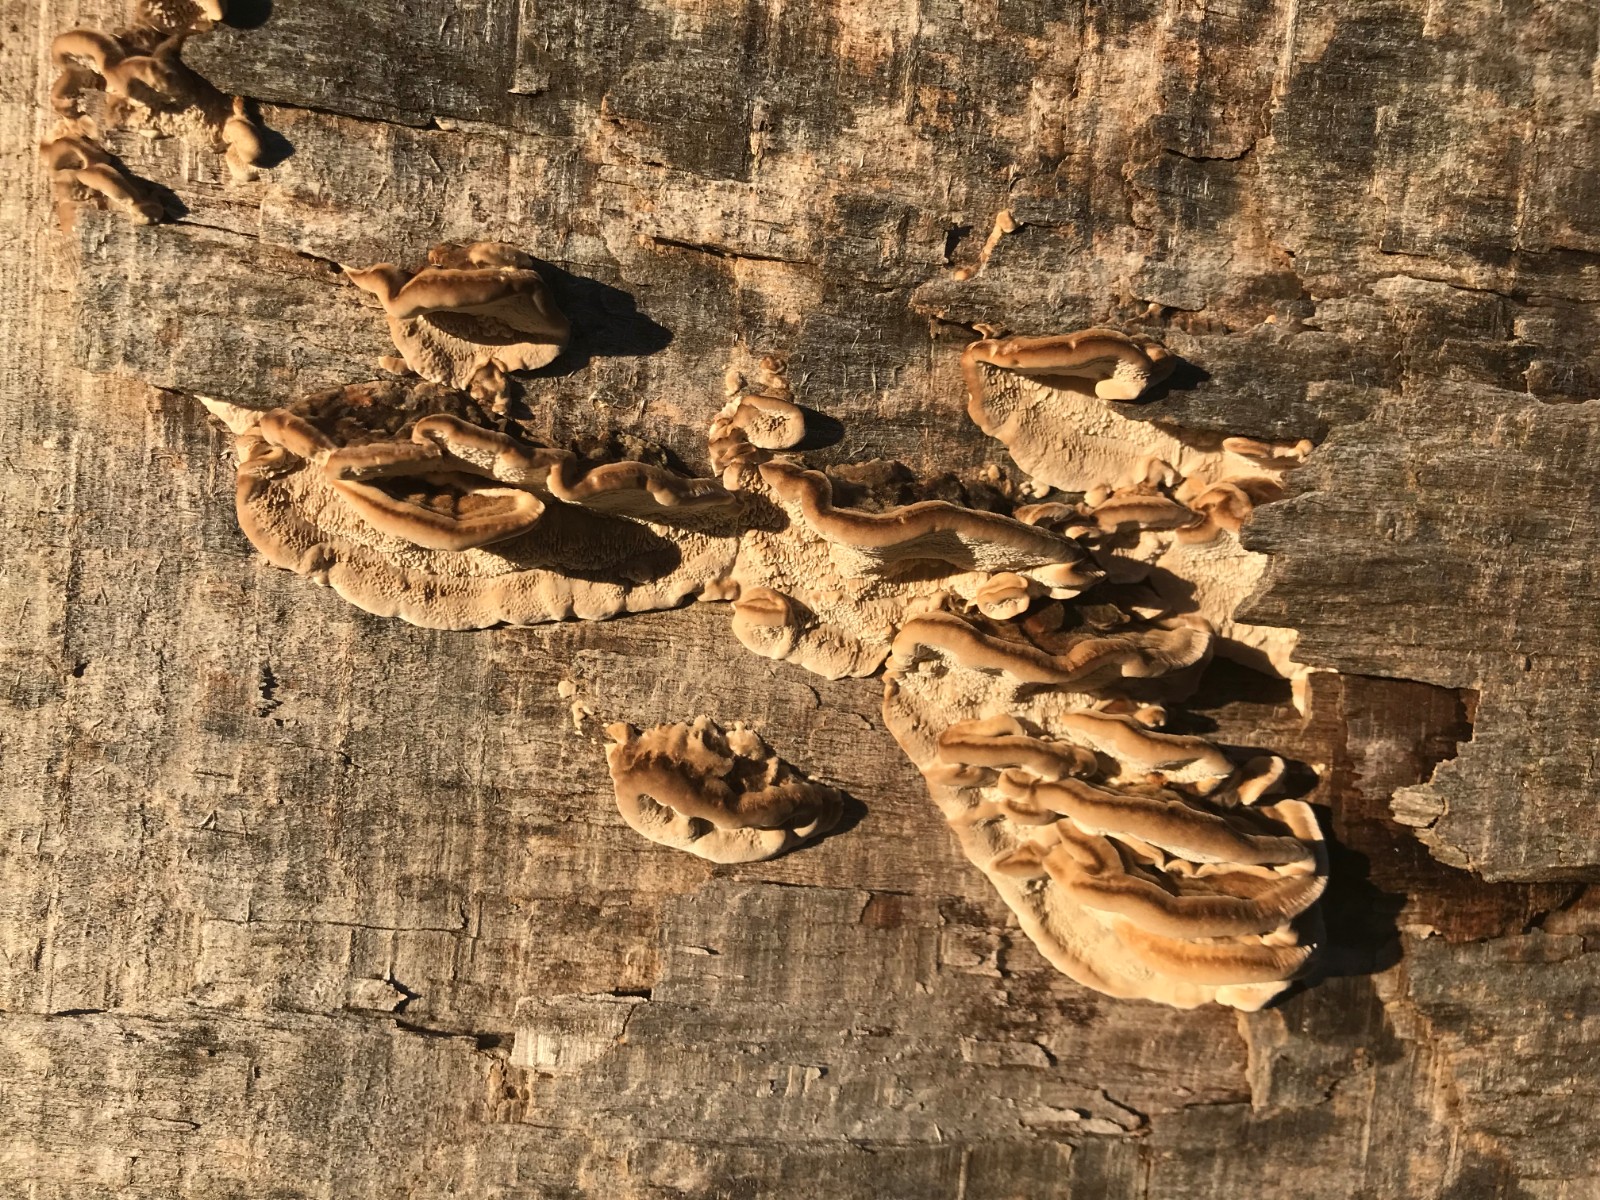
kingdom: Fungi
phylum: Basidiomycota
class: Agaricomycetes
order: Polyporales
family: Polyporaceae
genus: Trametes
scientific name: Trametes ochracea
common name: bæltet læderporesvamp
